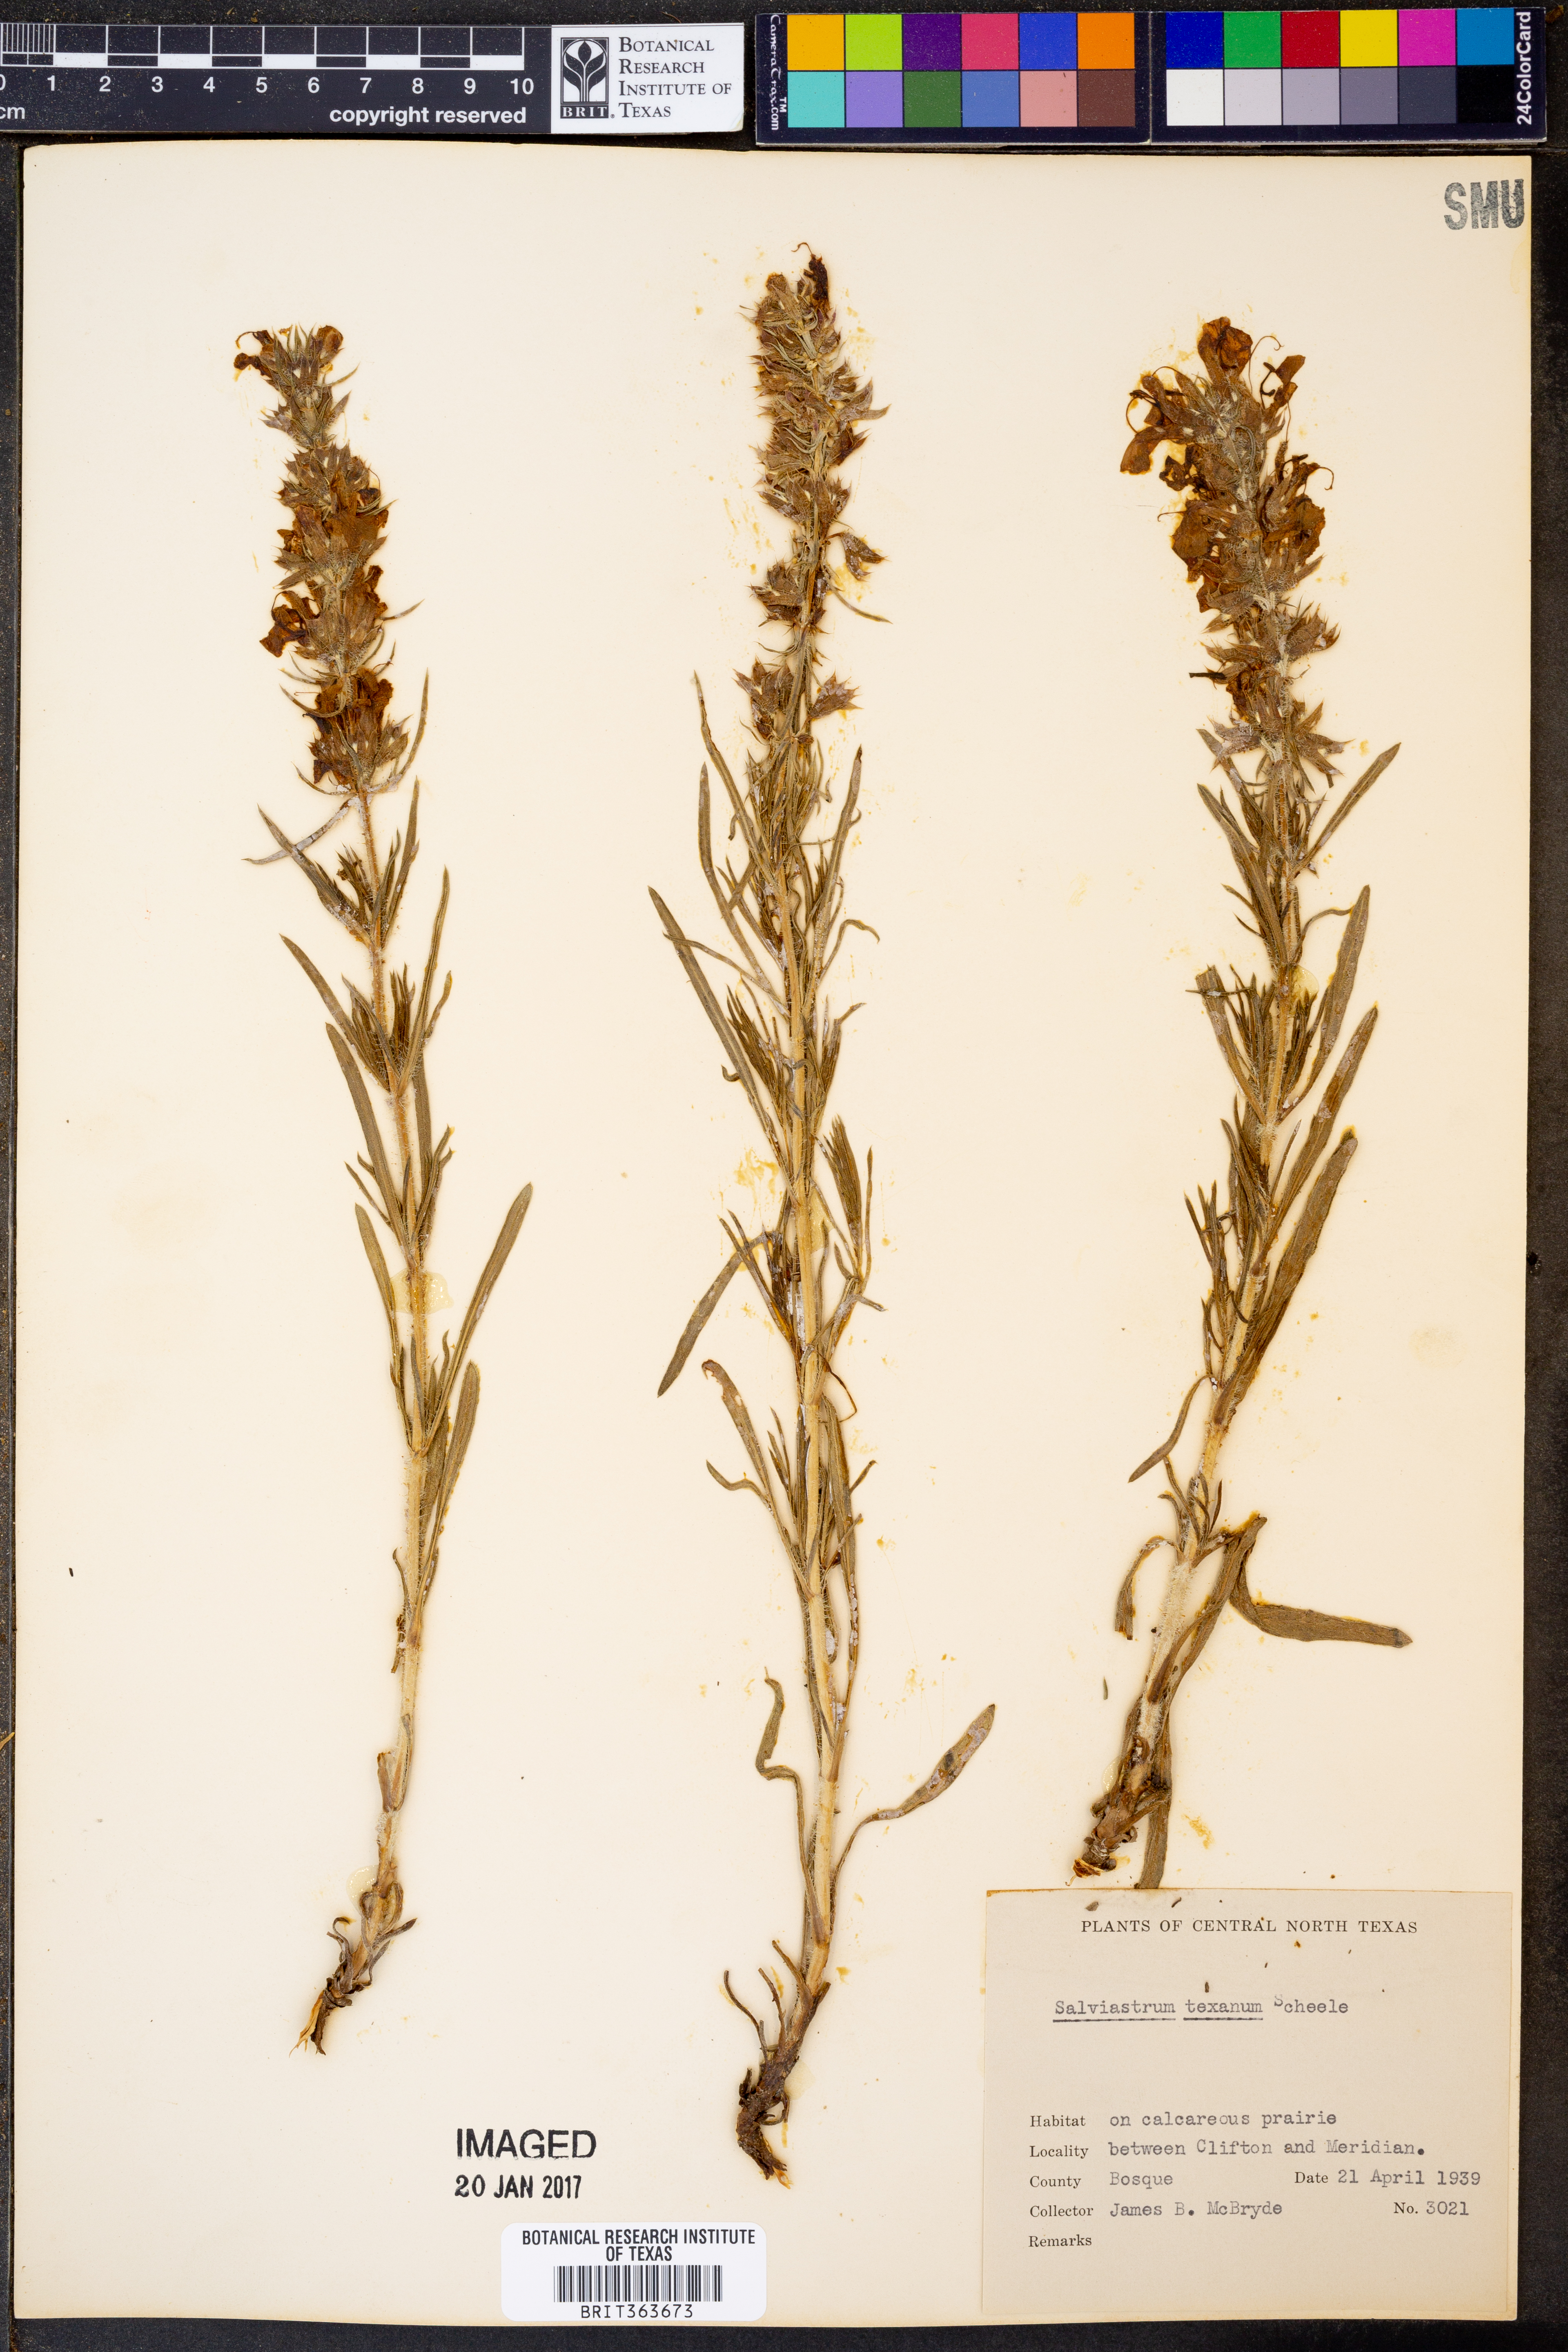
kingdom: Plantae
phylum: Tracheophyta
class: Magnoliopsida
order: Lamiales
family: Lamiaceae
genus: Salvia
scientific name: Salvia texana
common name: Texas sage
